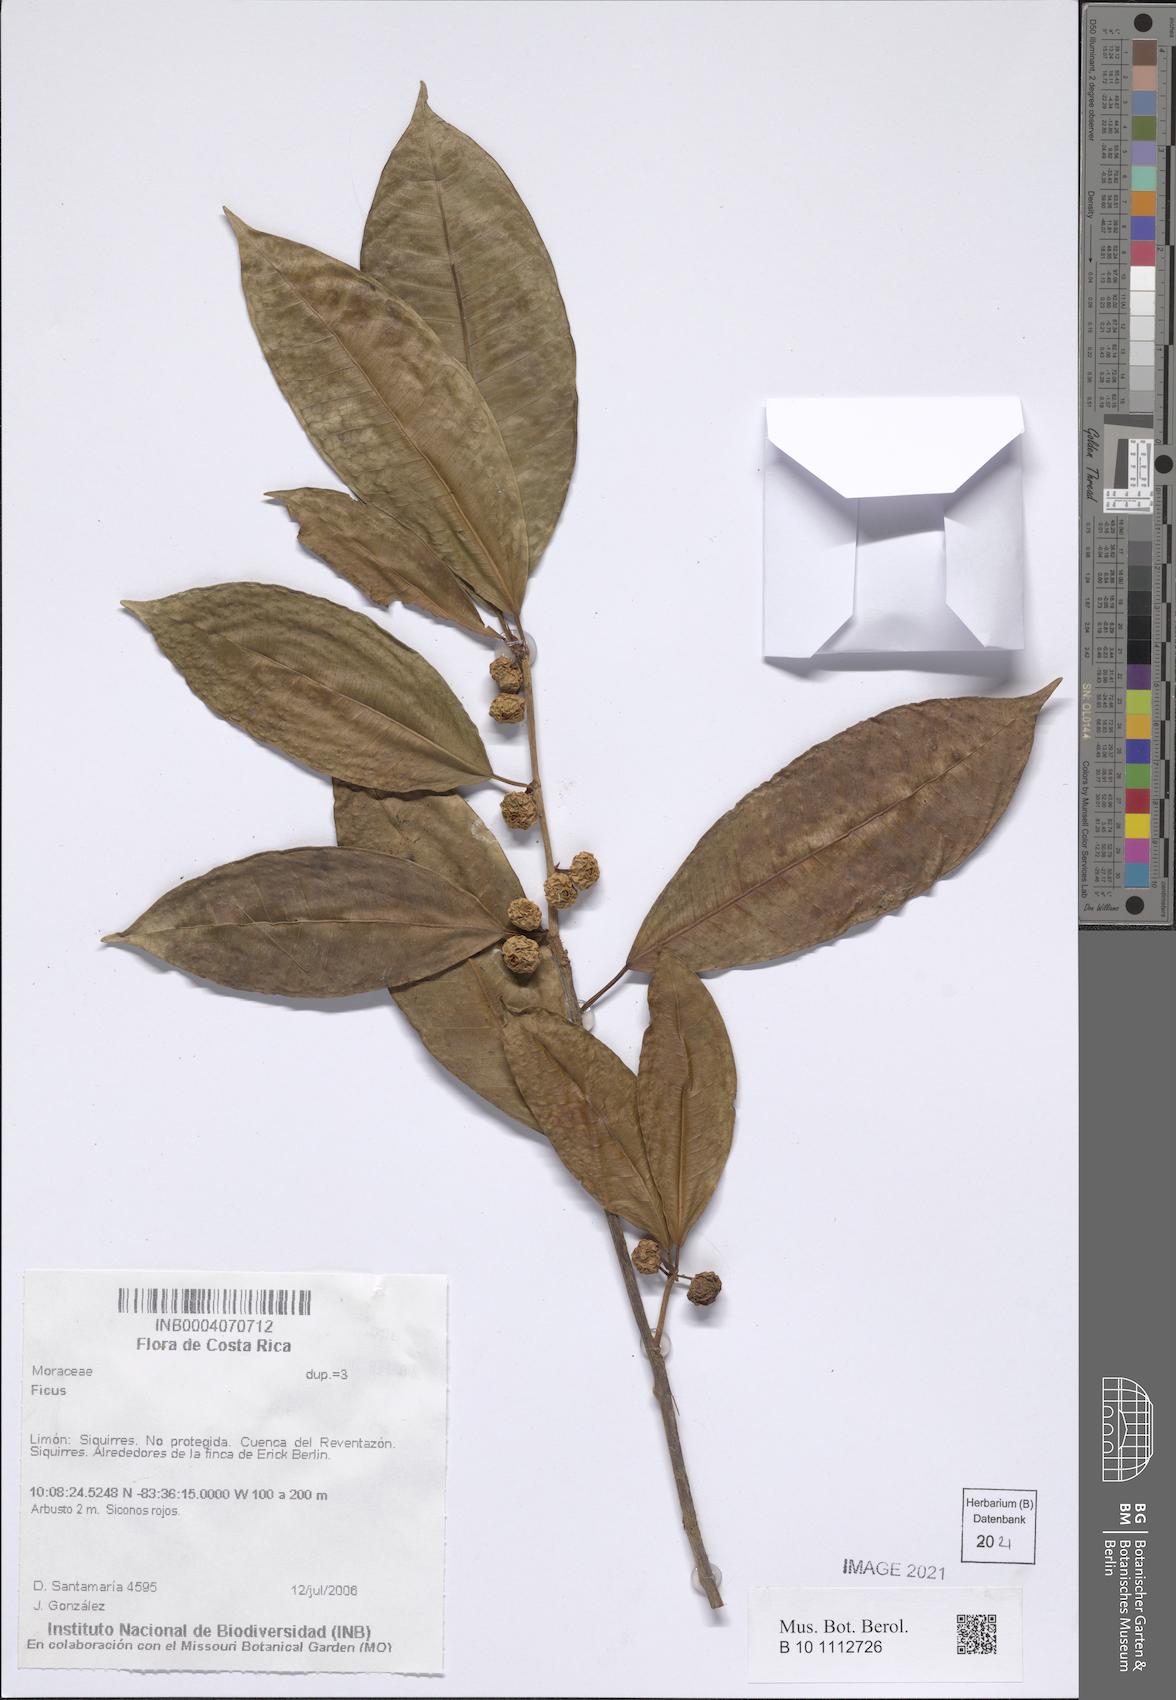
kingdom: Plantae
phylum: Tracheophyta
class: Magnoliopsida
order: Rosales
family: Moraceae
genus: Ficus
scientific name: Ficus
